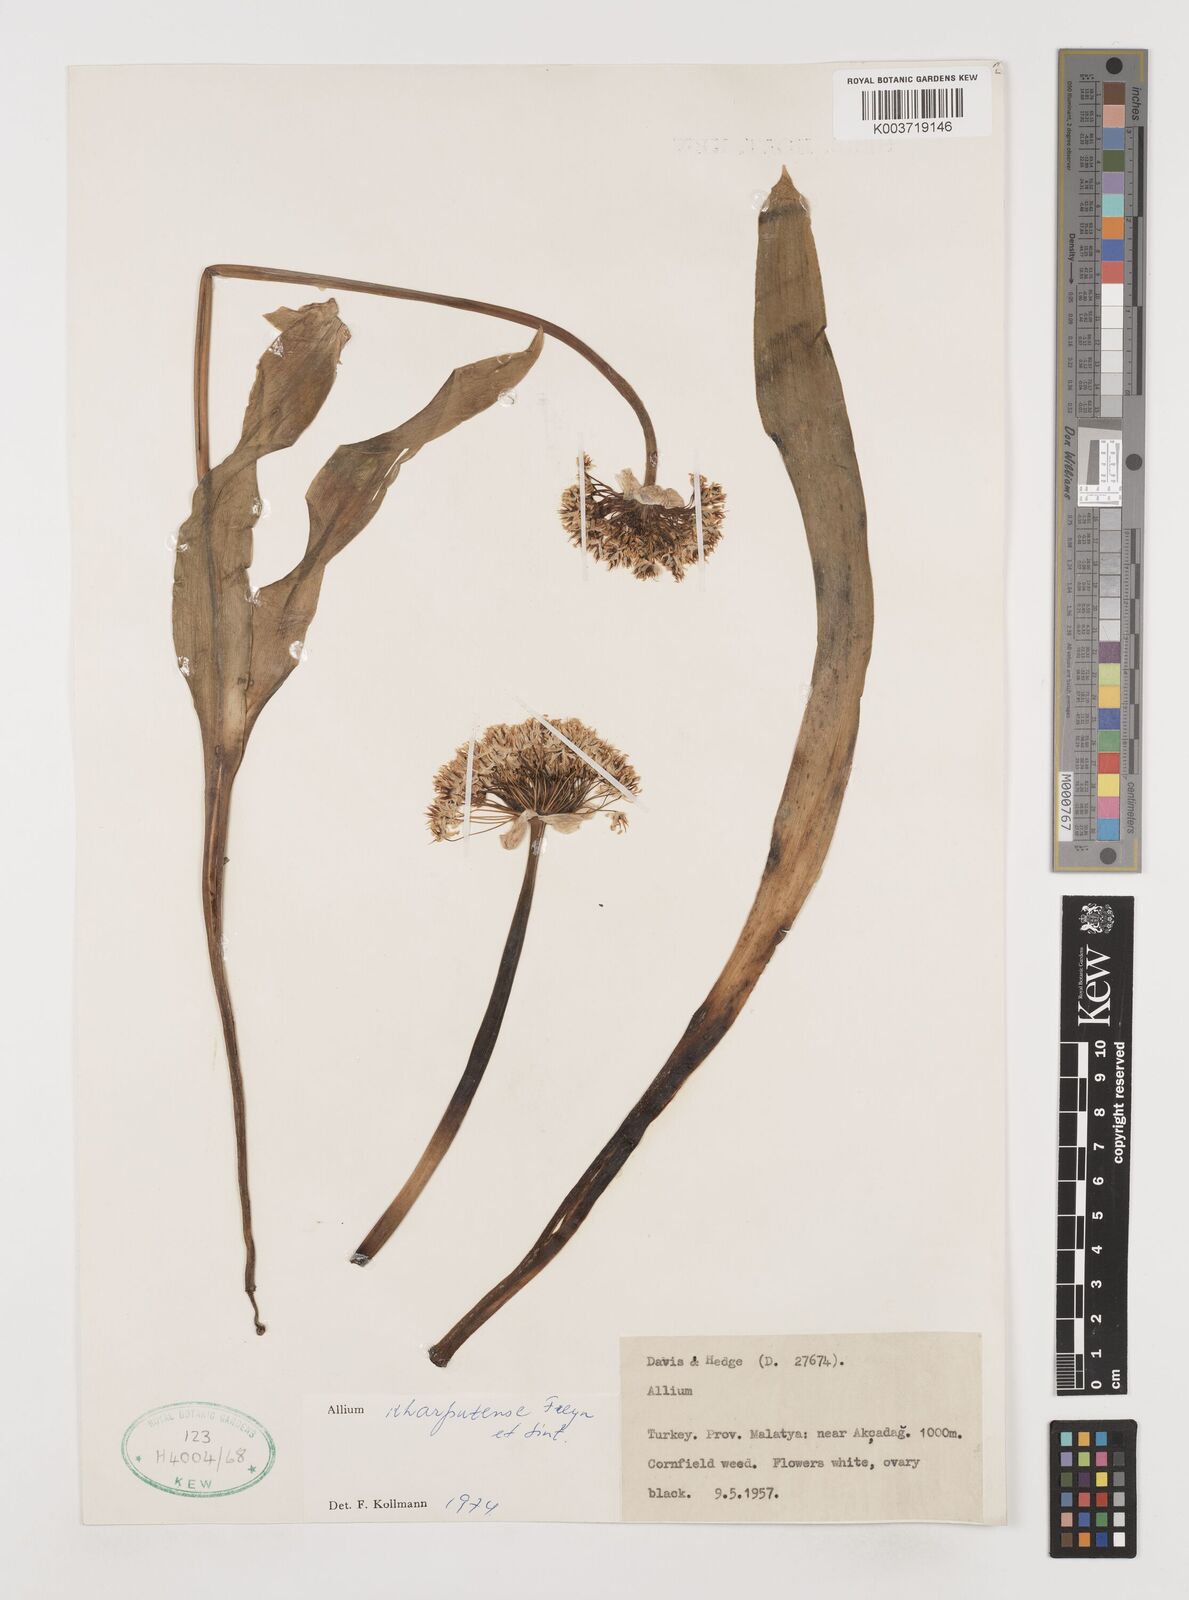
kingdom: Plantae
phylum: Tracheophyta
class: Liliopsida
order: Asparagales
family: Amaryllidaceae
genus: Allium
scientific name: Allium kharputense
